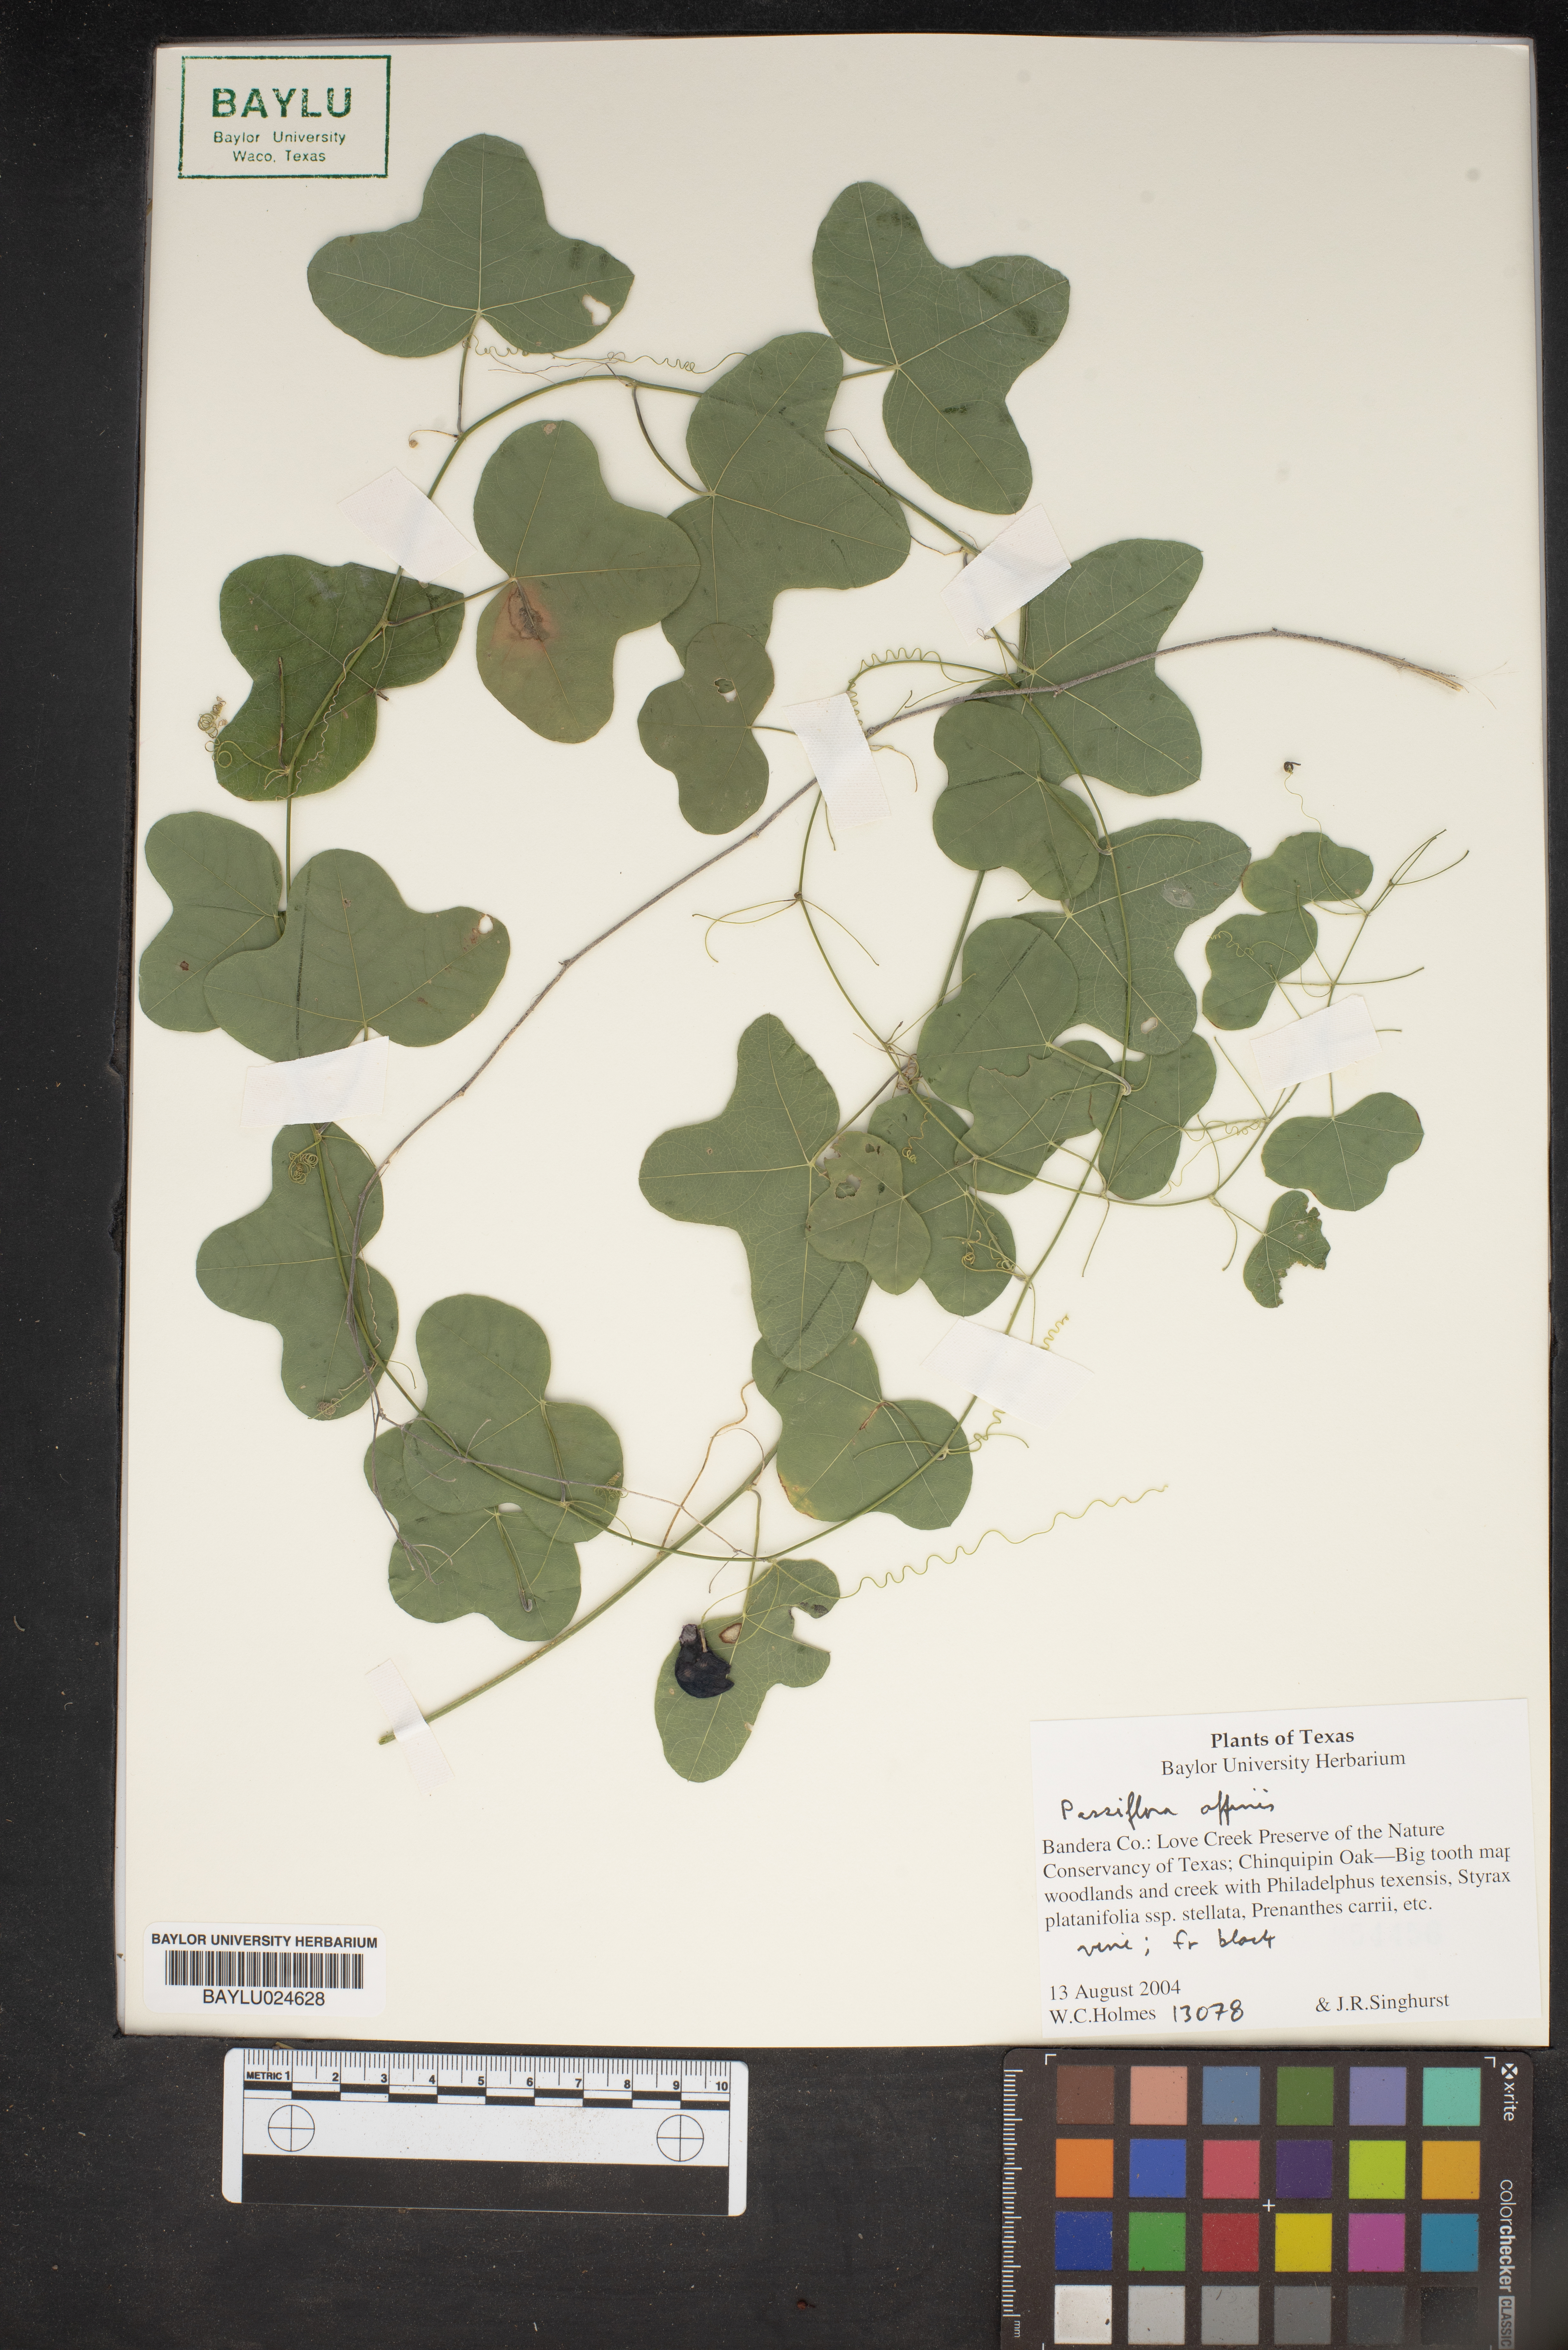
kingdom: Plantae
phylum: Tracheophyta
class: Magnoliopsida
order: Malpighiales
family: Passifloraceae
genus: Passiflora
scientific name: Passiflora affinis
